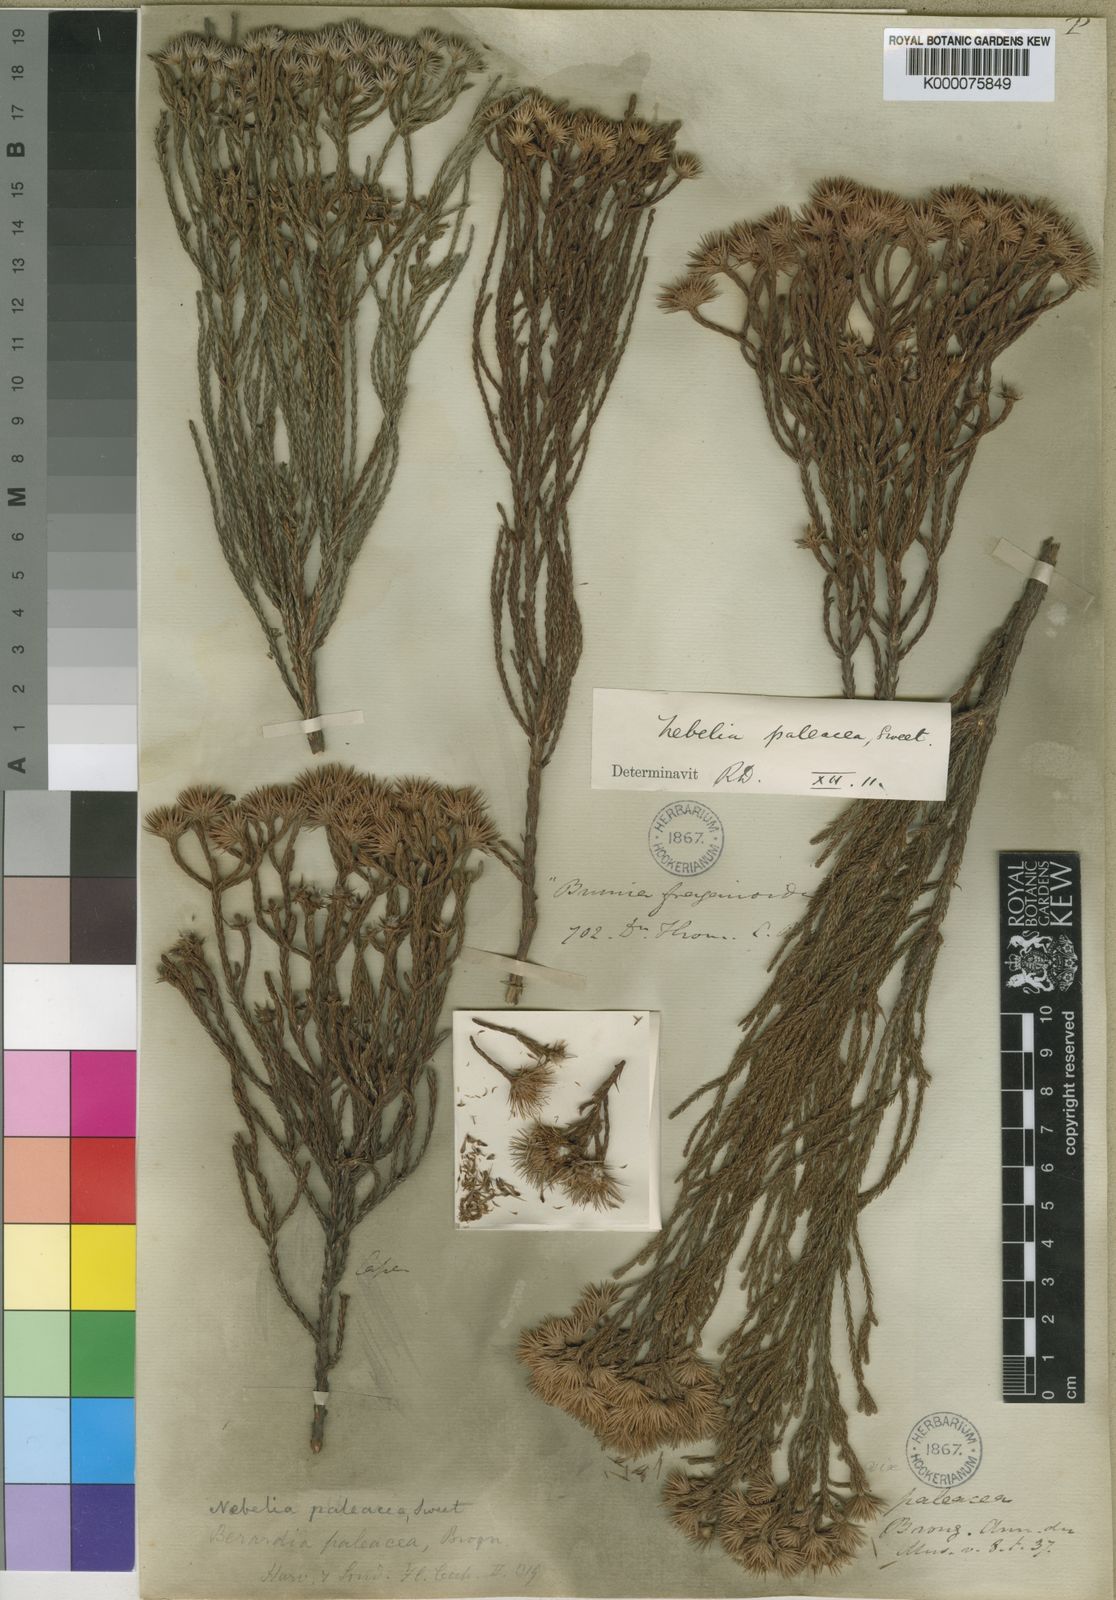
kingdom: Plantae
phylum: Tracheophyta
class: Magnoliopsida
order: Bruniales
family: Bruniaceae
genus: Brunia
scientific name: Brunia paleacea
